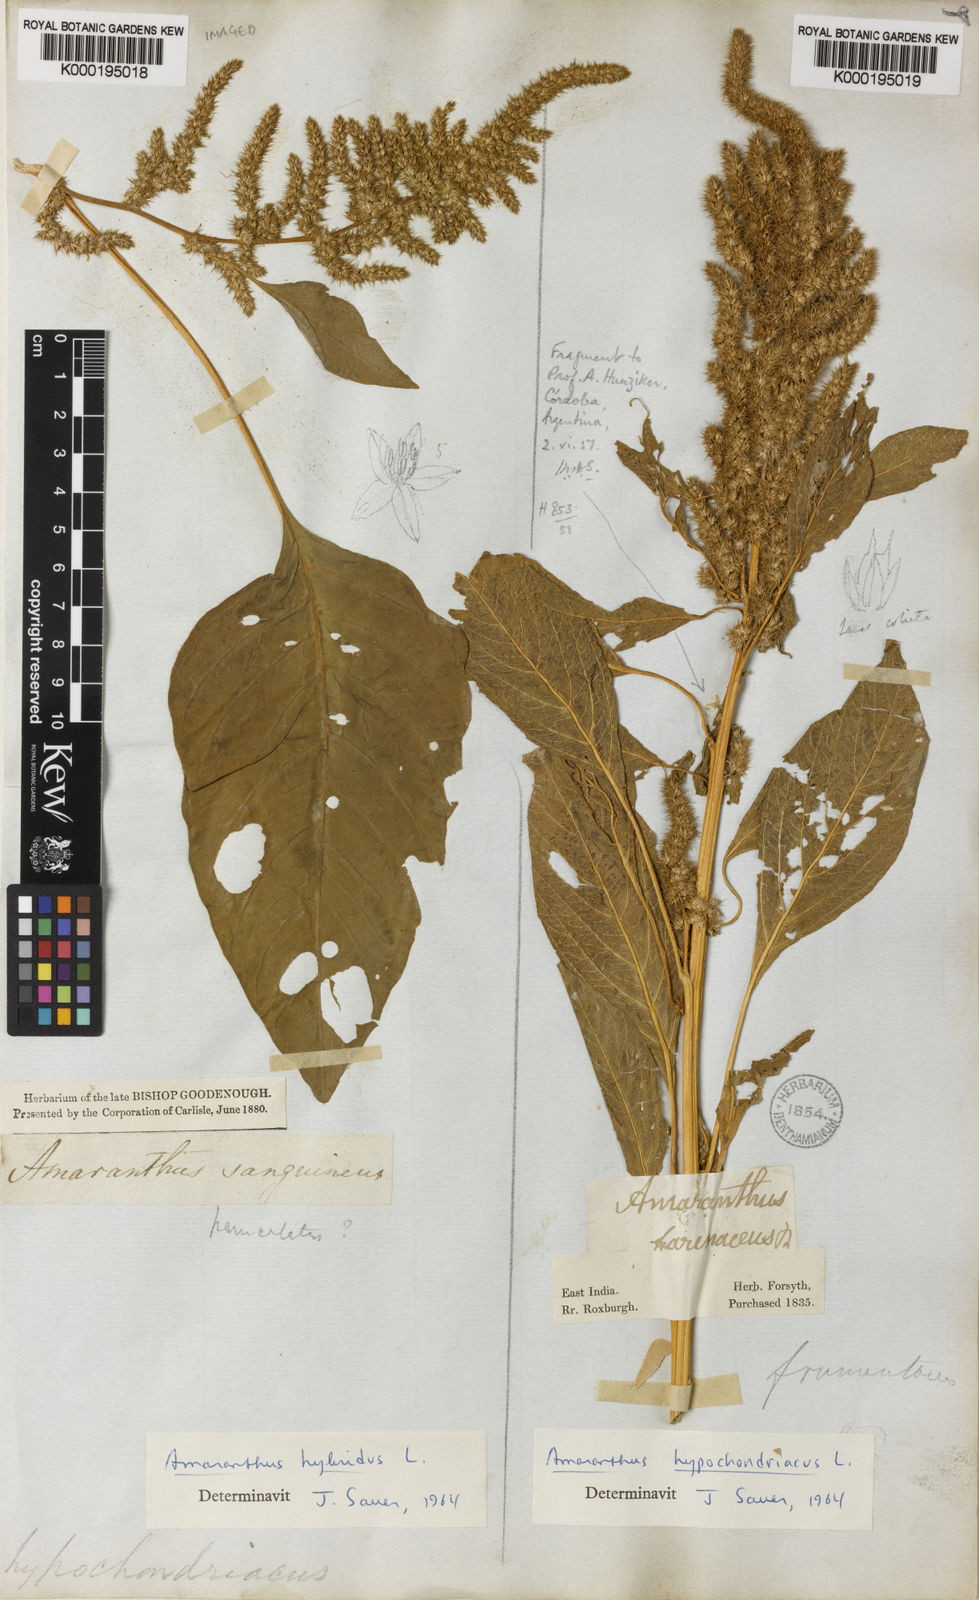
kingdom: Plantae
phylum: Tracheophyta
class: Magnoliopsida
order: Caryophyllales
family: Amaranthaceae
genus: Amaranthus
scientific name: Amaranthus hybridus
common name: Green amaranth
